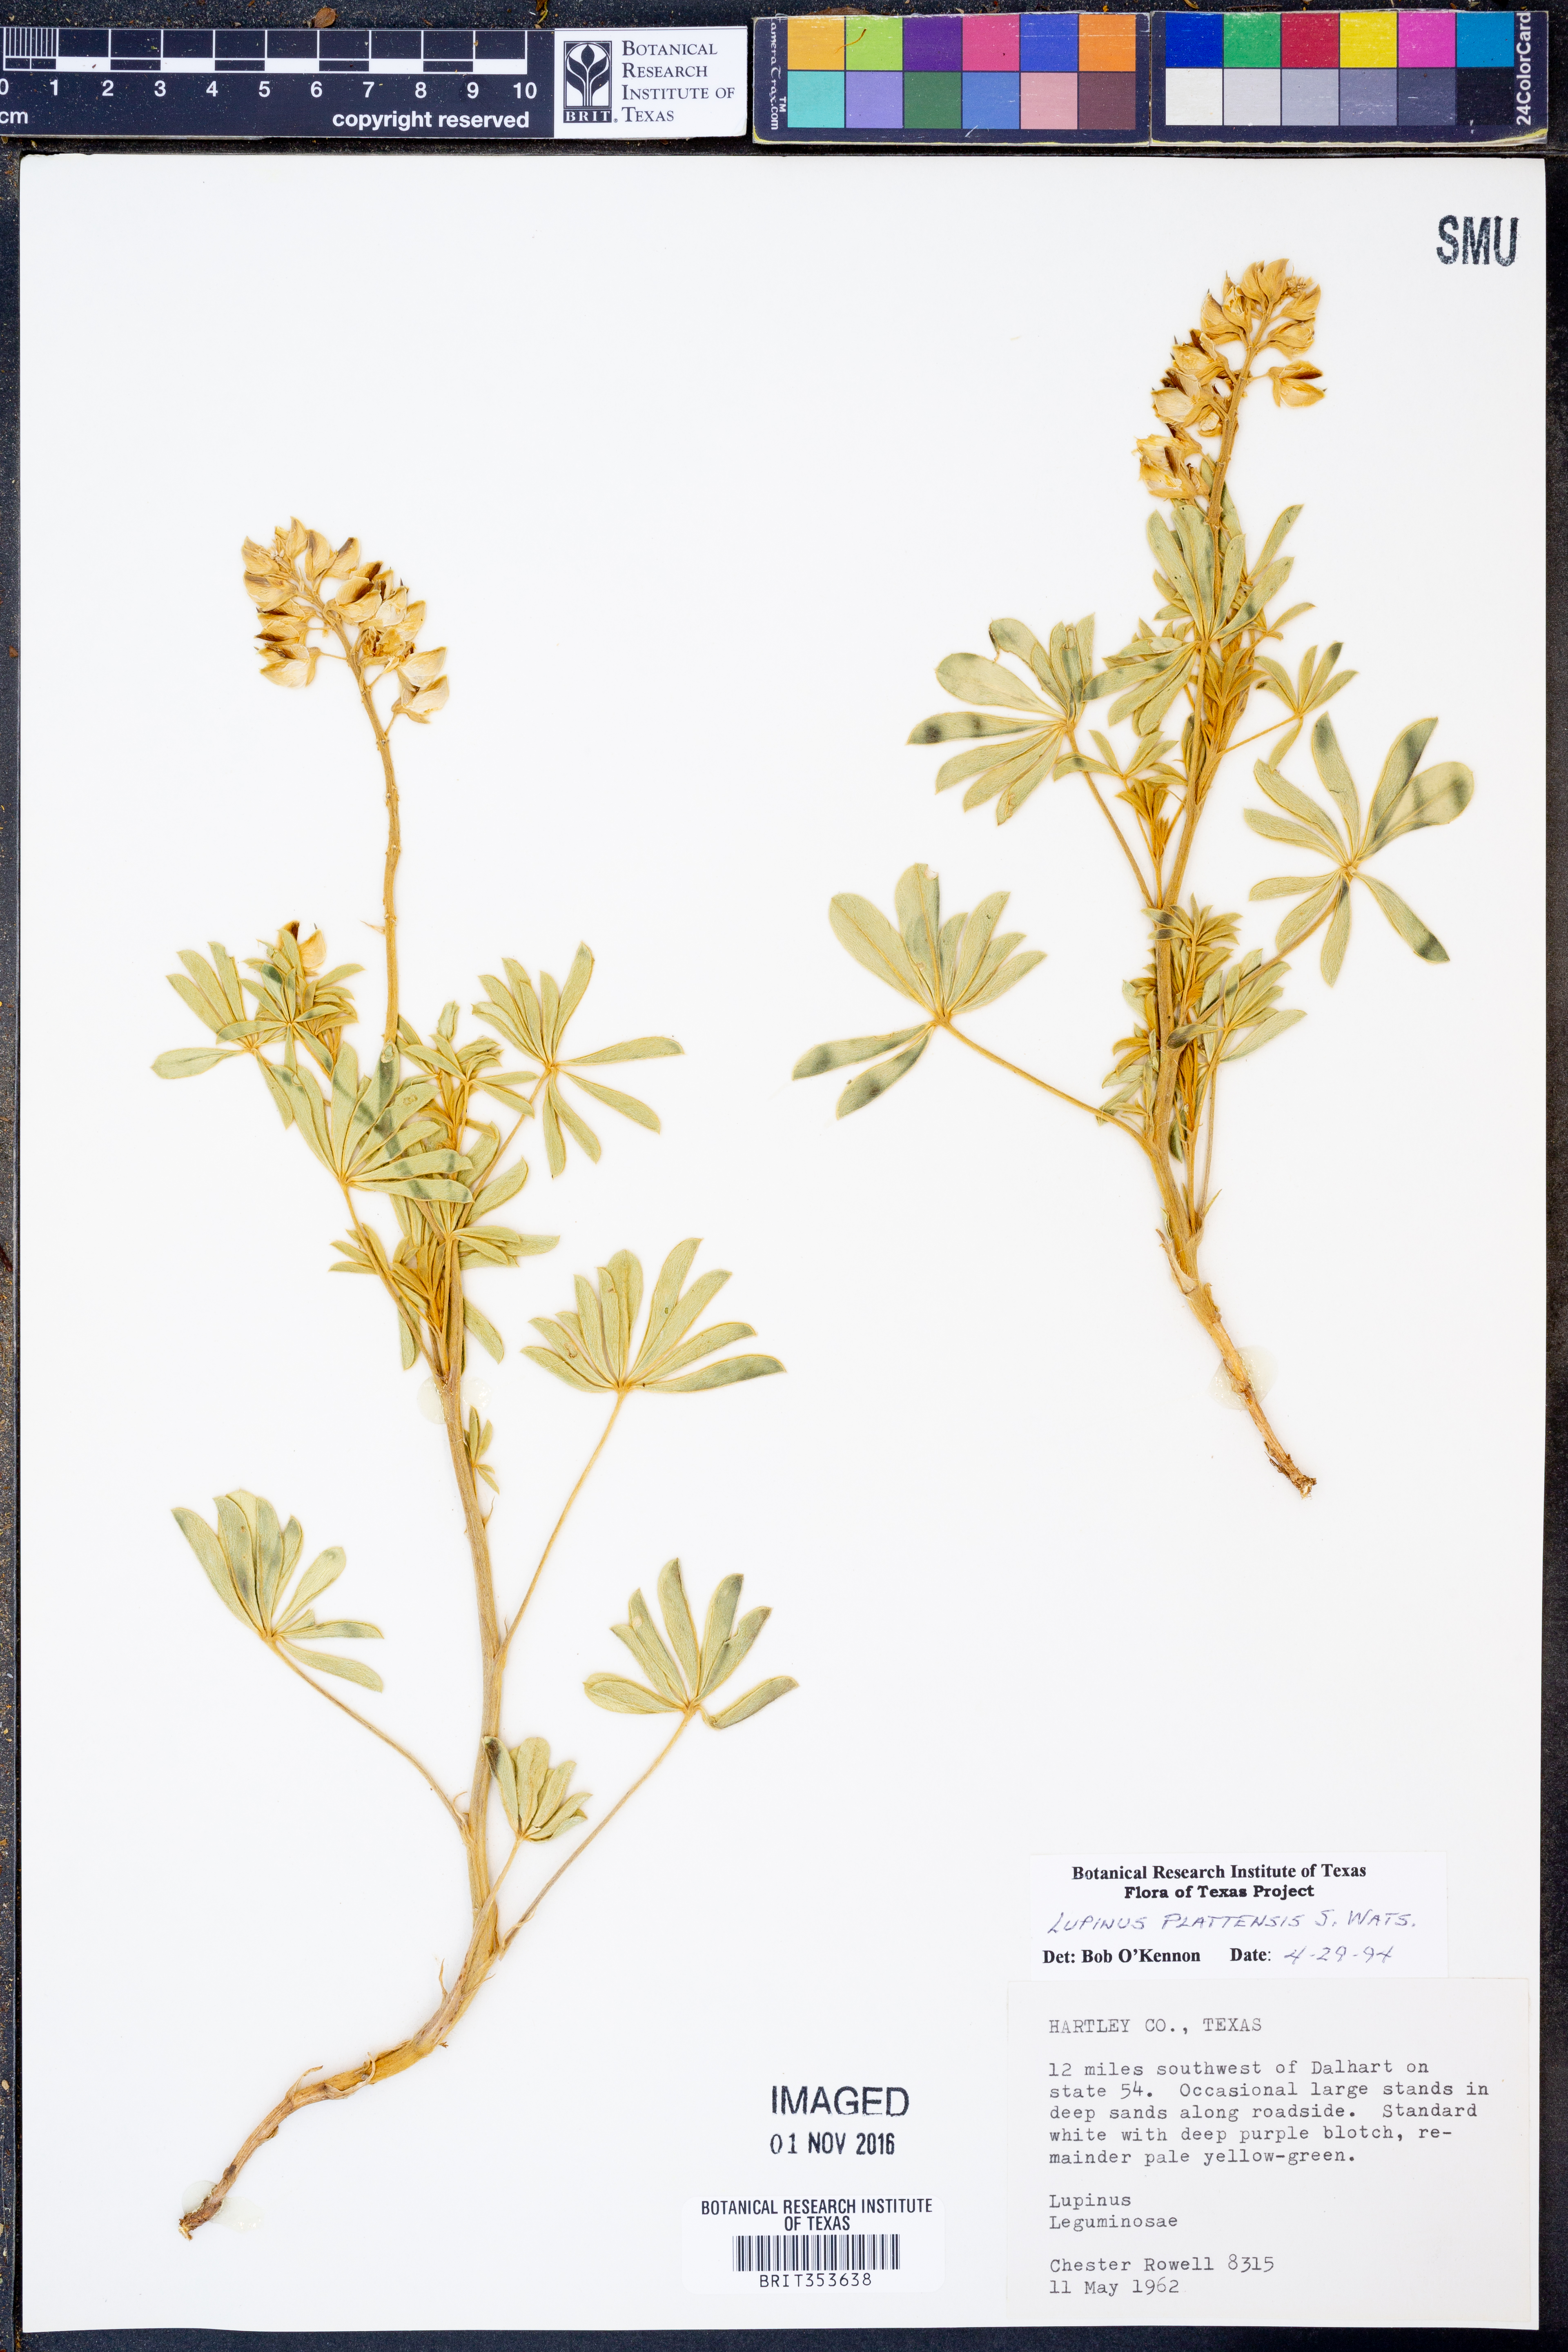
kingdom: Plantae
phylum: Tracheophyta
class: Magnoliopsida
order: Fabales
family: Fabaceae
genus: Lupinus
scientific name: Lupinus plattensis
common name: Platte lupine
